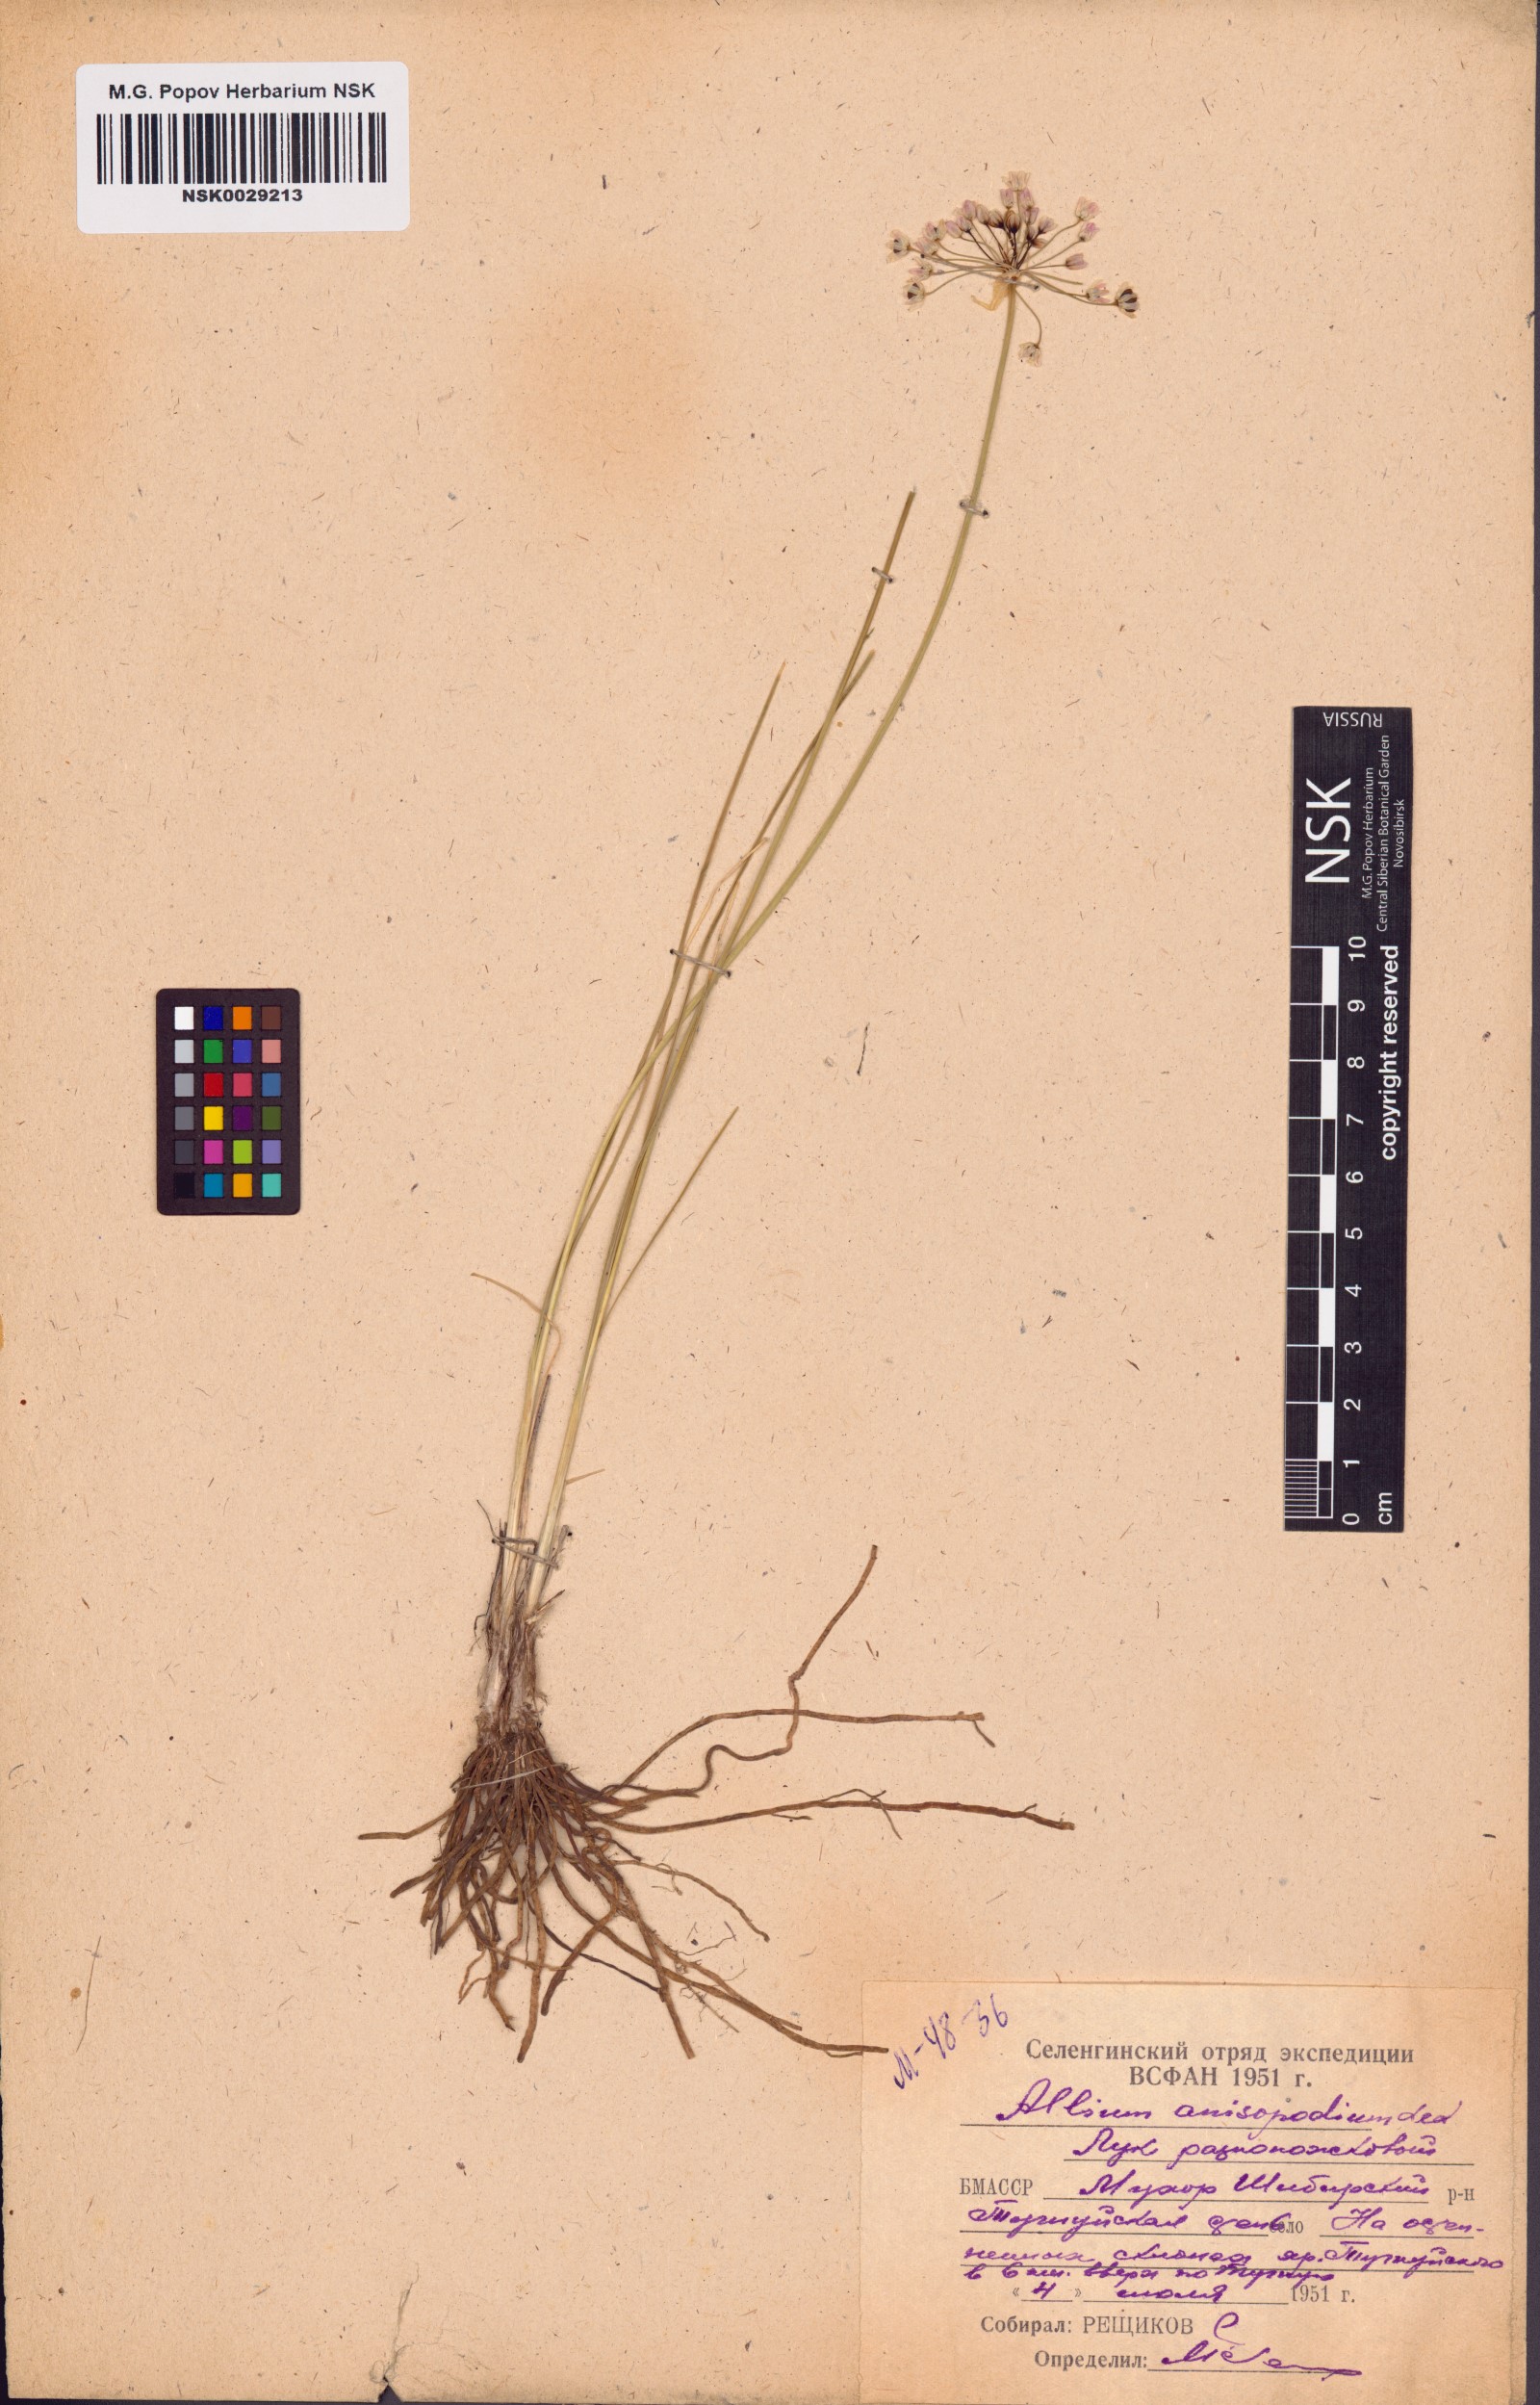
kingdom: Plantae
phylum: Tracheophyta
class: Liliopsida
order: Asparagales
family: Amaryllidaceae
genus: Allium
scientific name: Allium anisopodium
